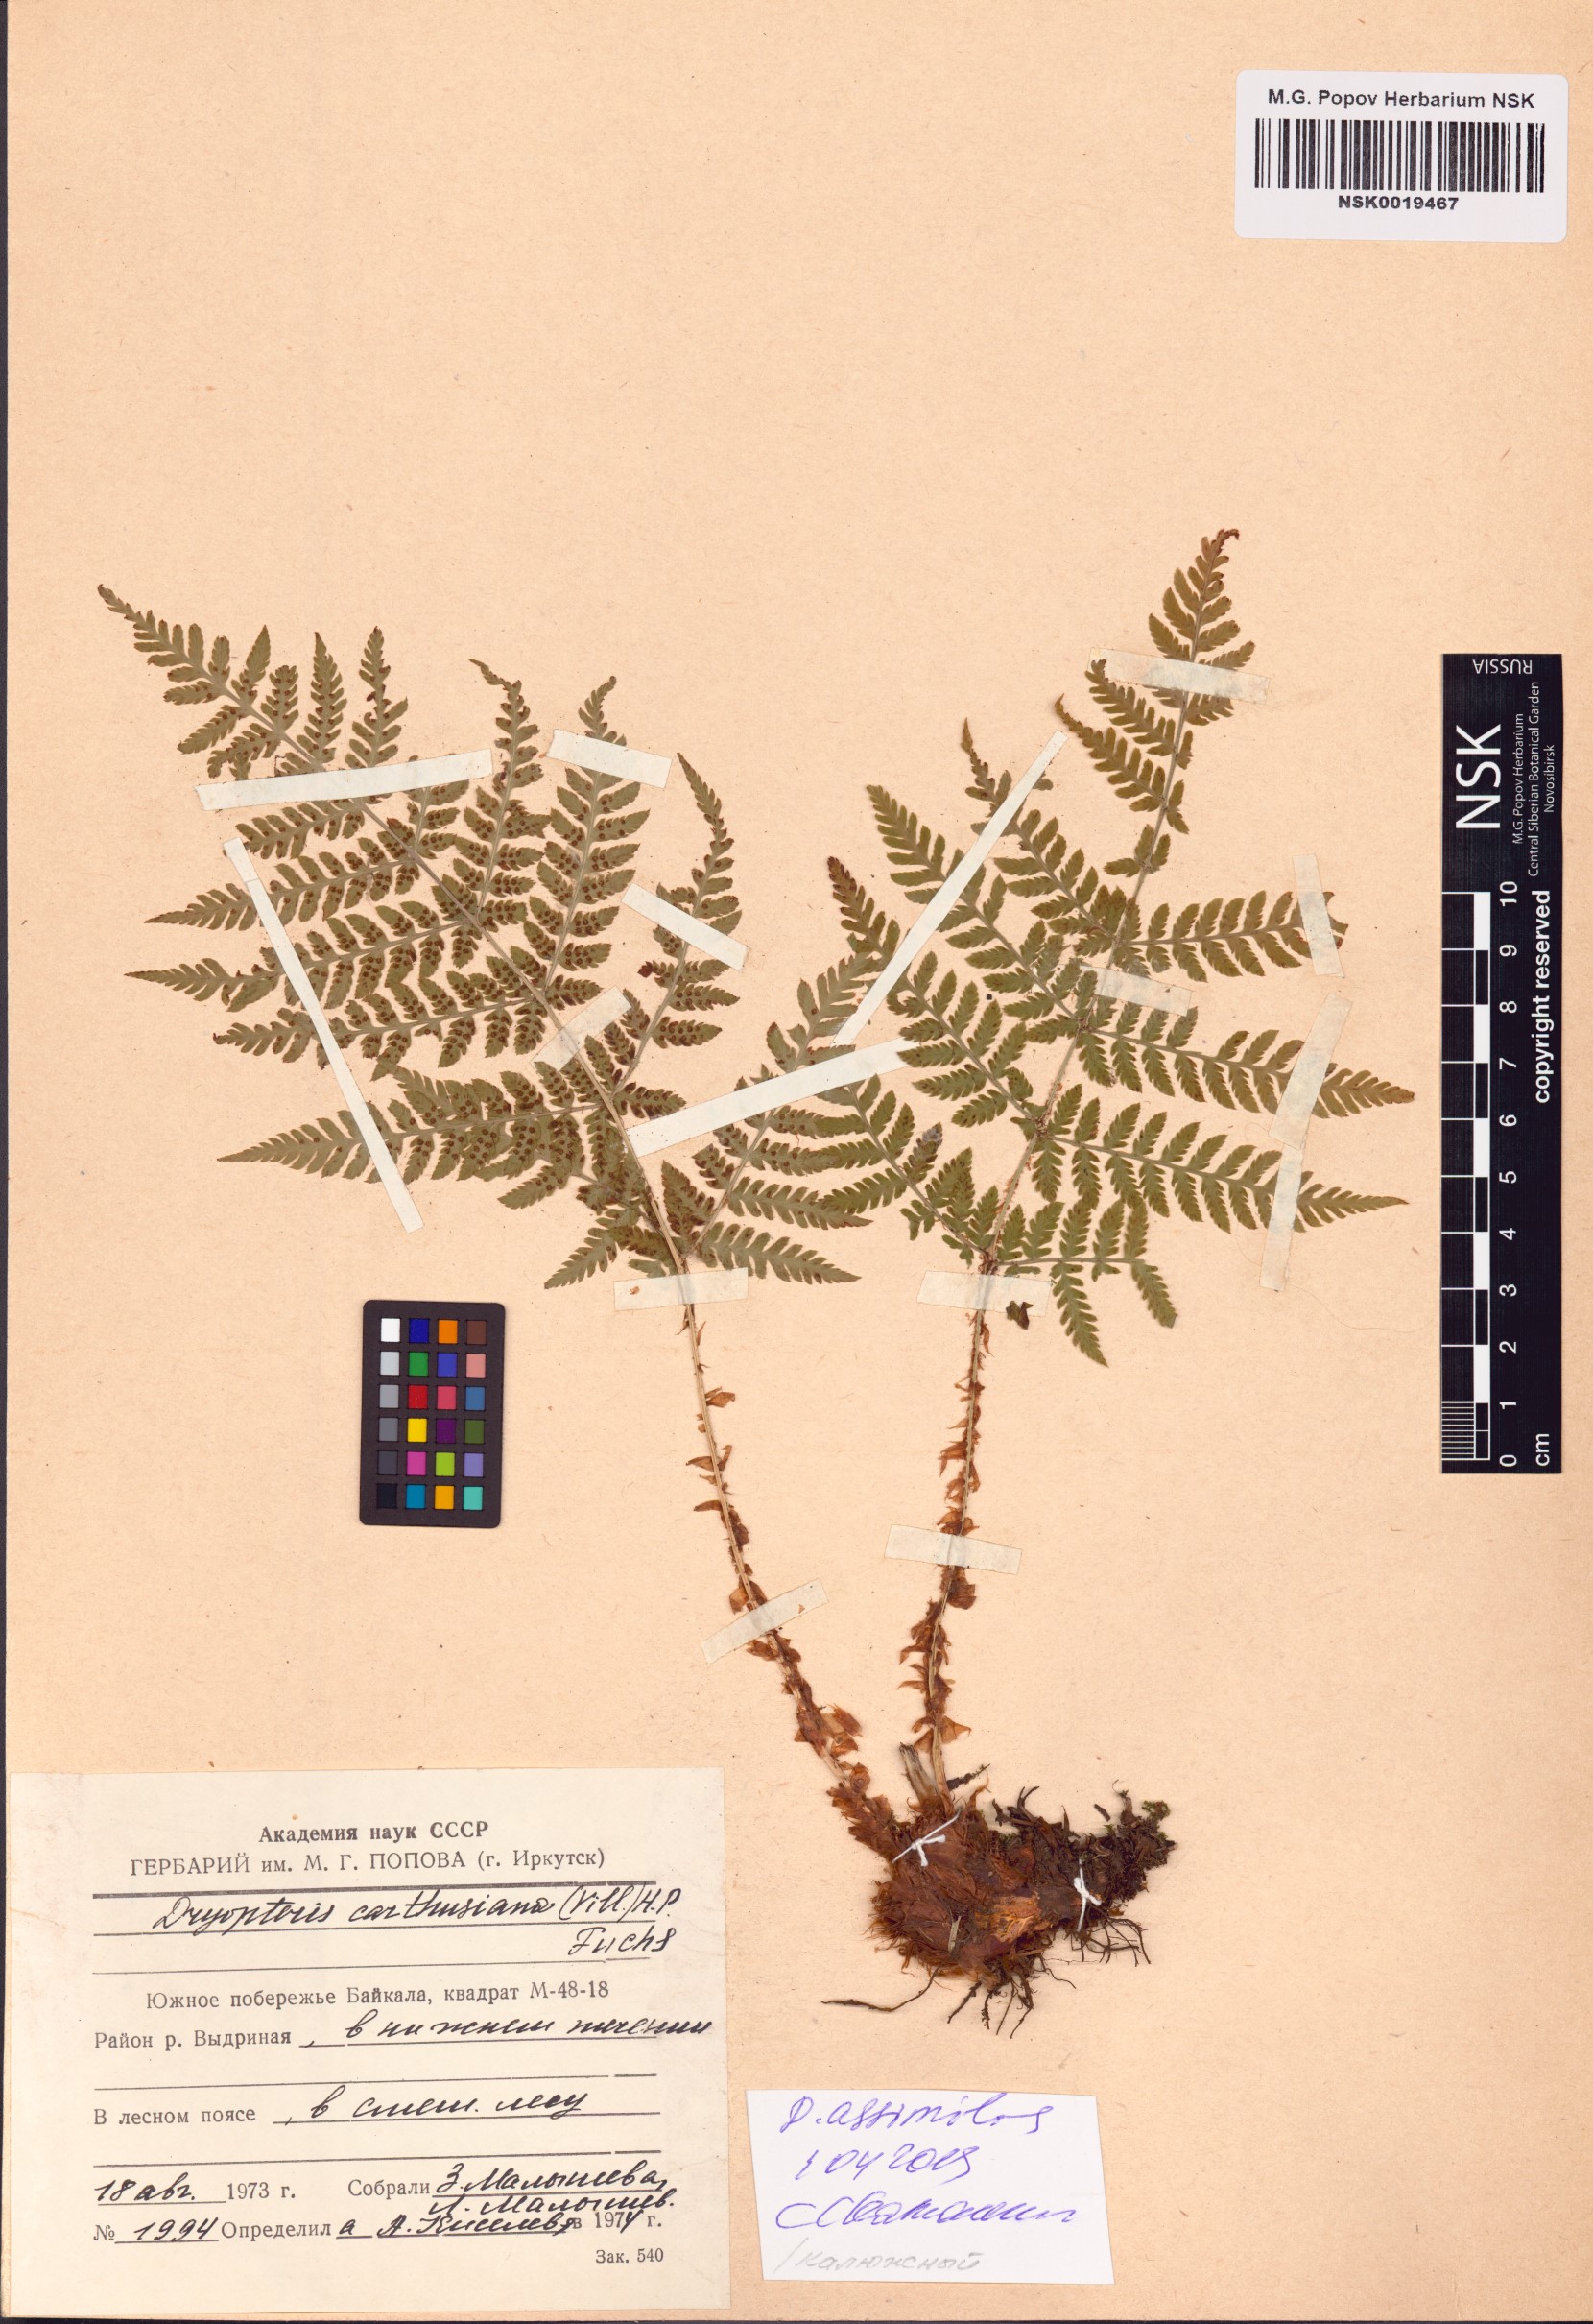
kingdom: Plantae
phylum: Tracheophyta
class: Polypodiopsida
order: Polypodiales
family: Dryopteridaceae
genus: Dryopteris
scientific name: Dryopteris expansa
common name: Northern buckler fern
